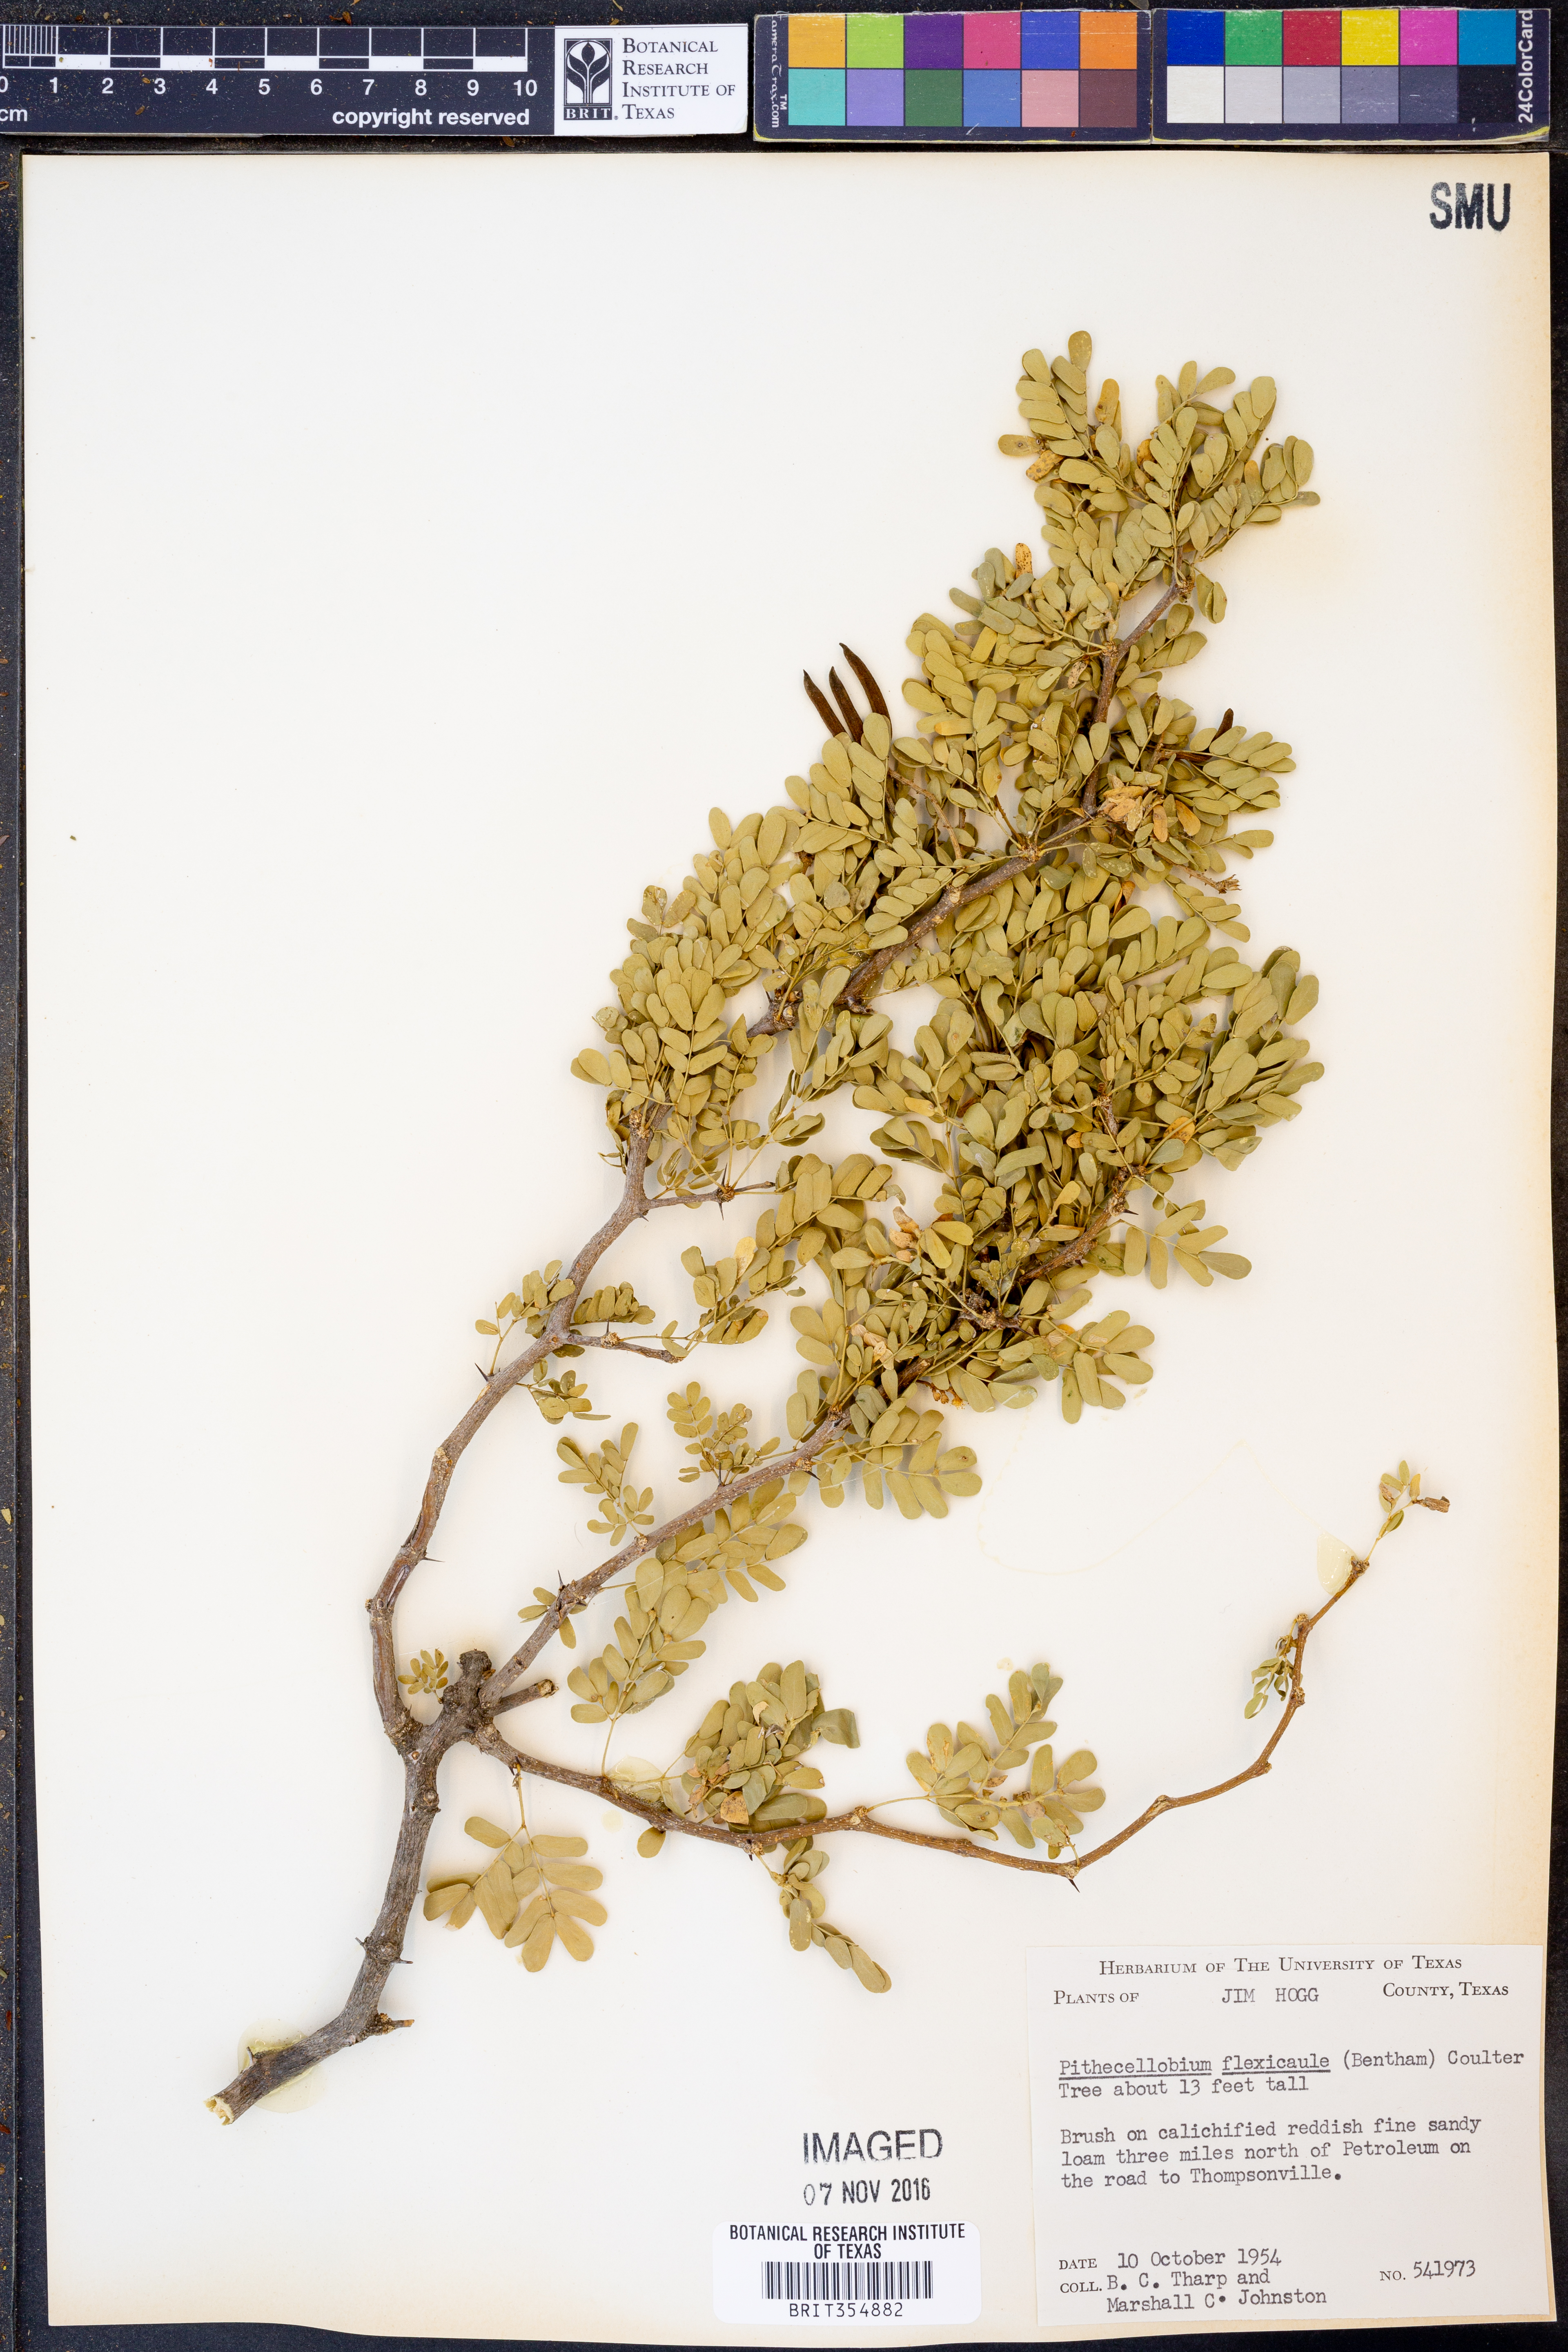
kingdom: Plantae
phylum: Tracheophyta
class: Magnoliopsida
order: Fabales
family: Fabaceae
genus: Ebenopsis
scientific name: Ebenopsis ebano
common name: Ebony blackbead
